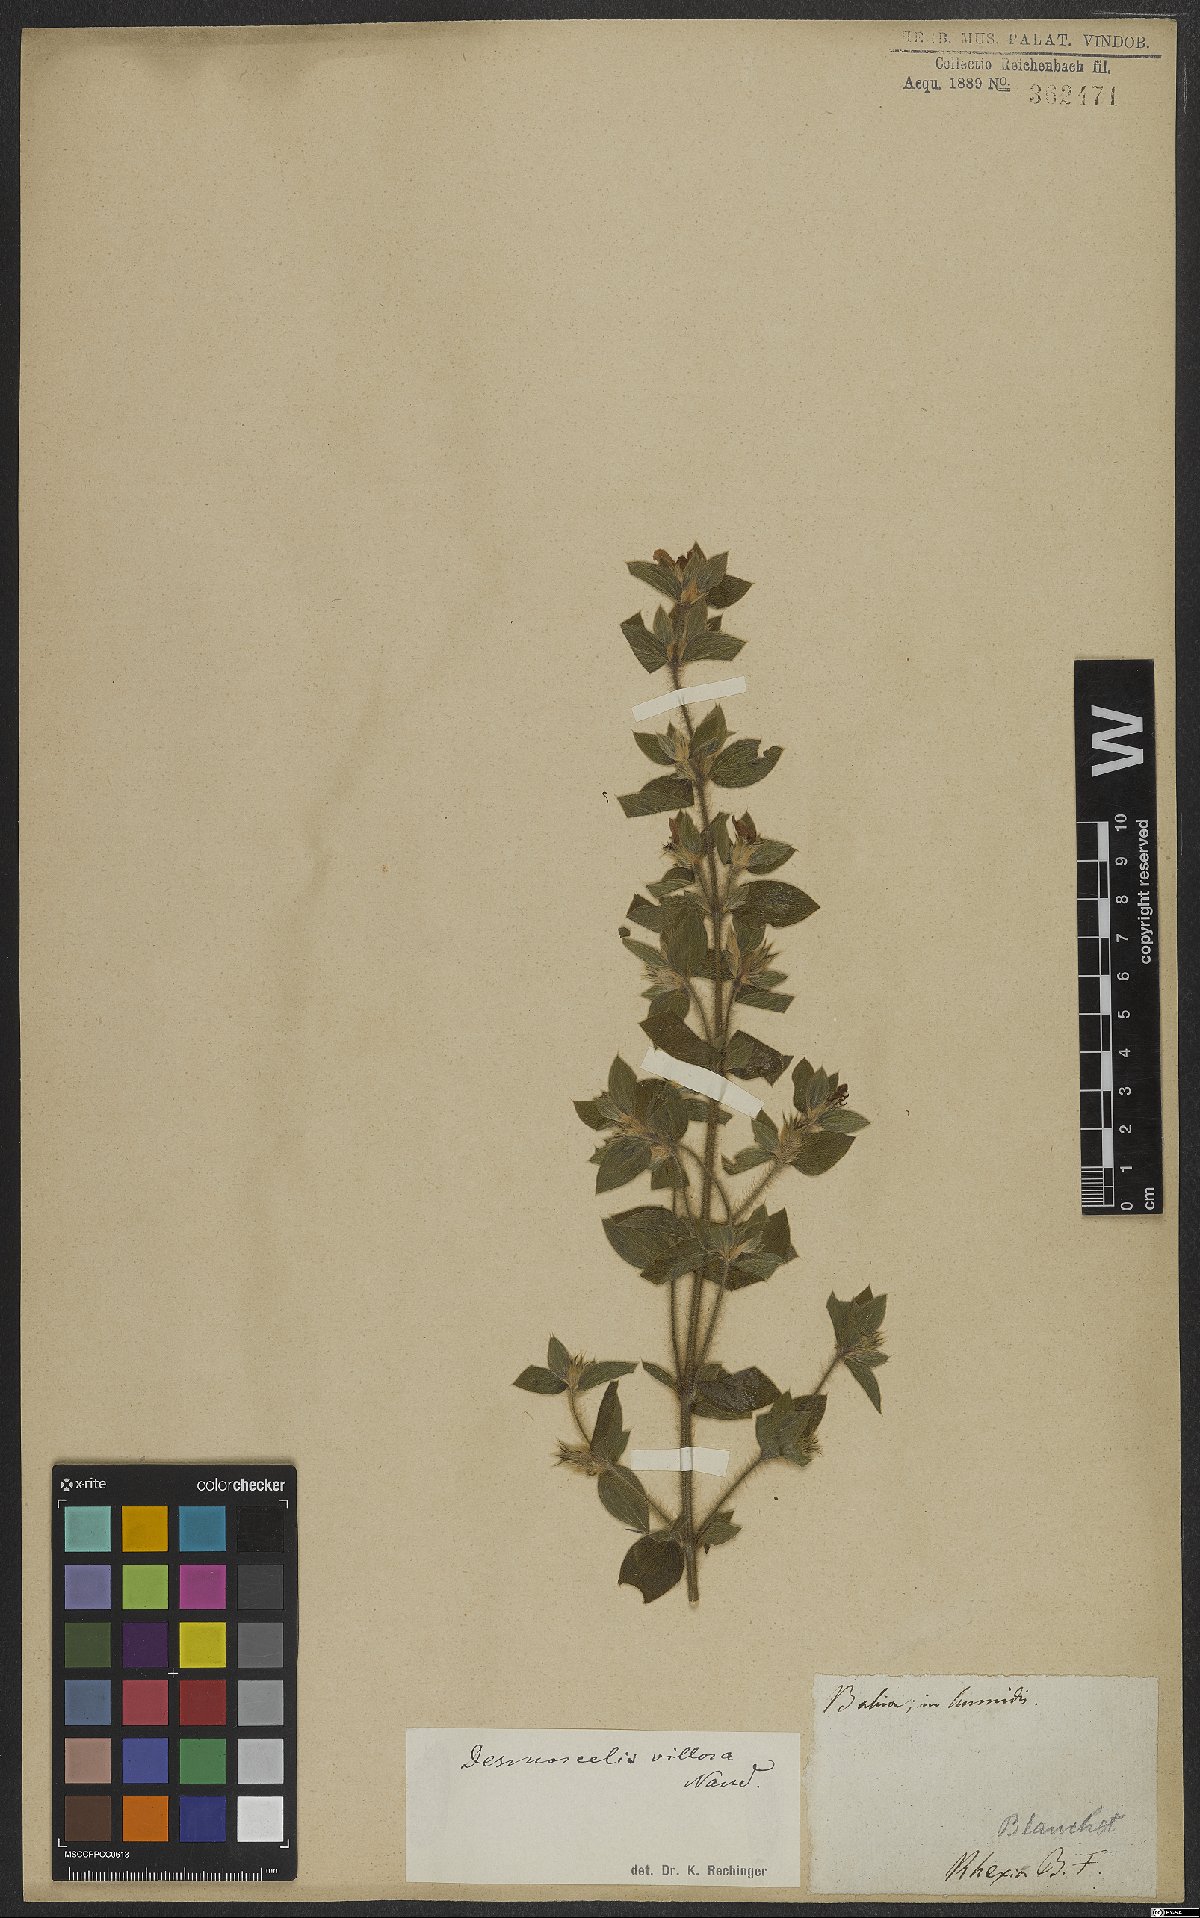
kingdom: Plantae
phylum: Tracheophyta
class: Magnoliopsida
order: Myrtales
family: Melastomataceae
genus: Desmoscelis
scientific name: Desmoscelis villosa
